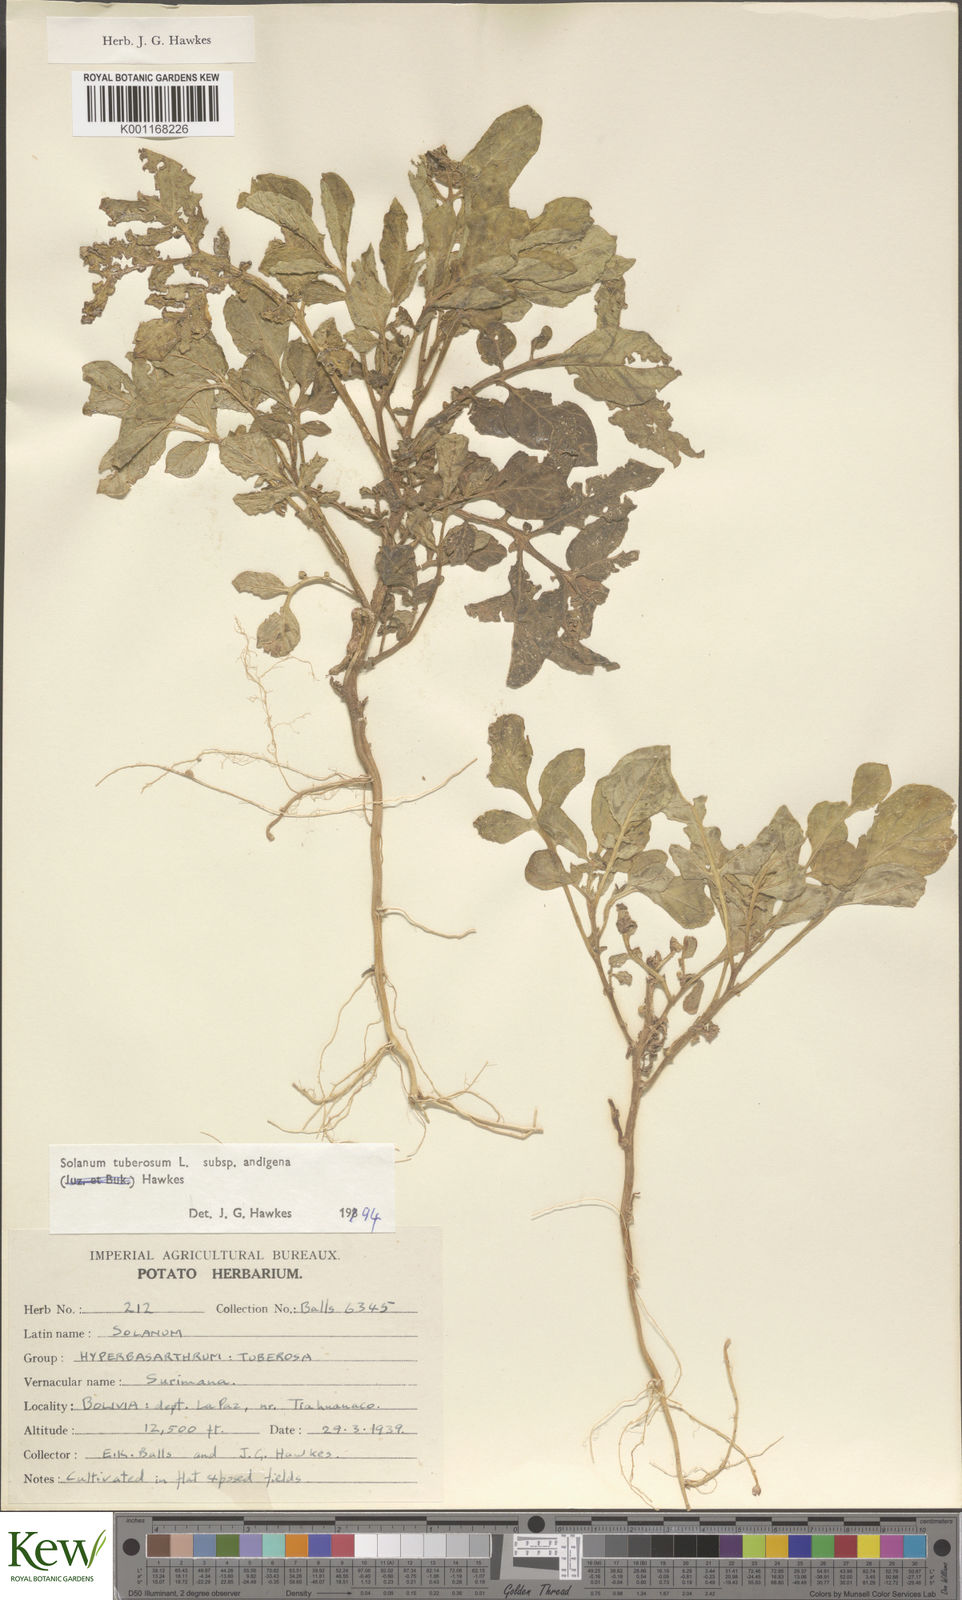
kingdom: Plantae
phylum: Tracheophyta
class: Magnoliopsida
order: Solanales
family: Solanaceae
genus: Solanum
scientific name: Solanum tuberosum
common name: Potato
